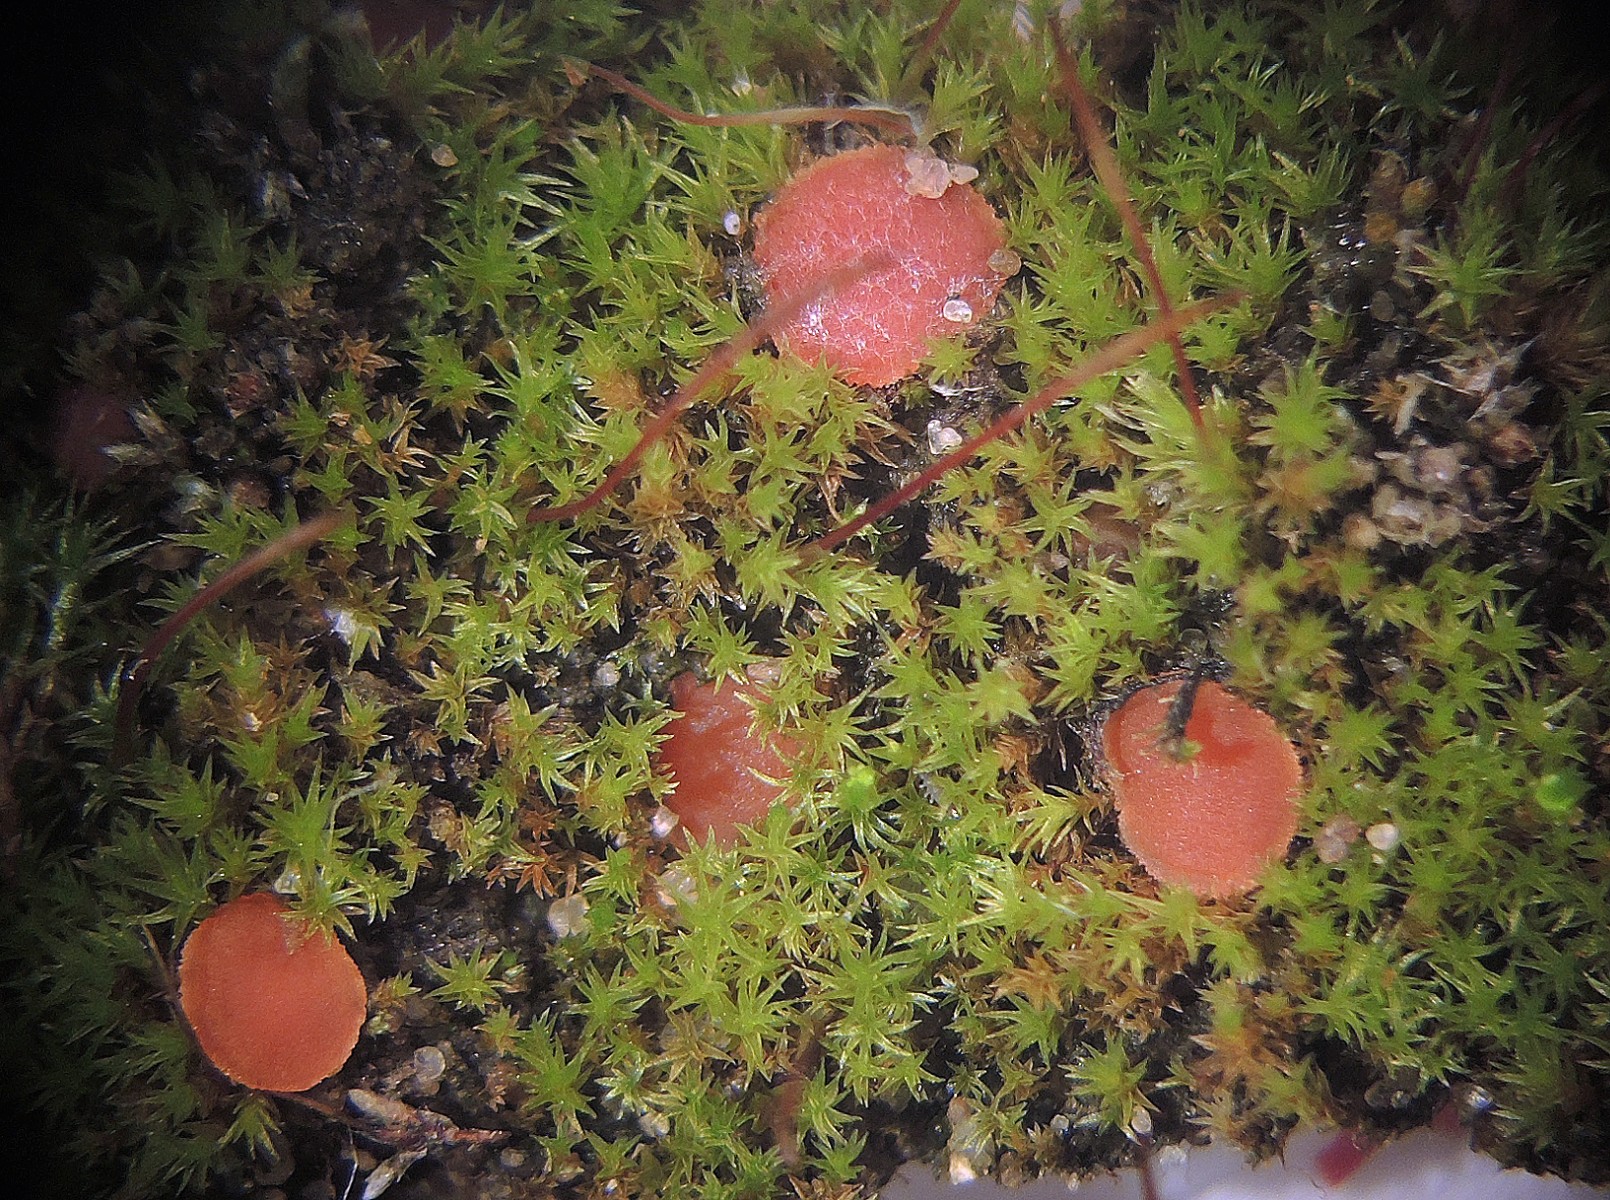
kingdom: Fungi
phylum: Ascomycota
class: Pezizomycetes
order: Pezizales
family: Pyronemataceae
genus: Octospora
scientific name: Octospora rubens
